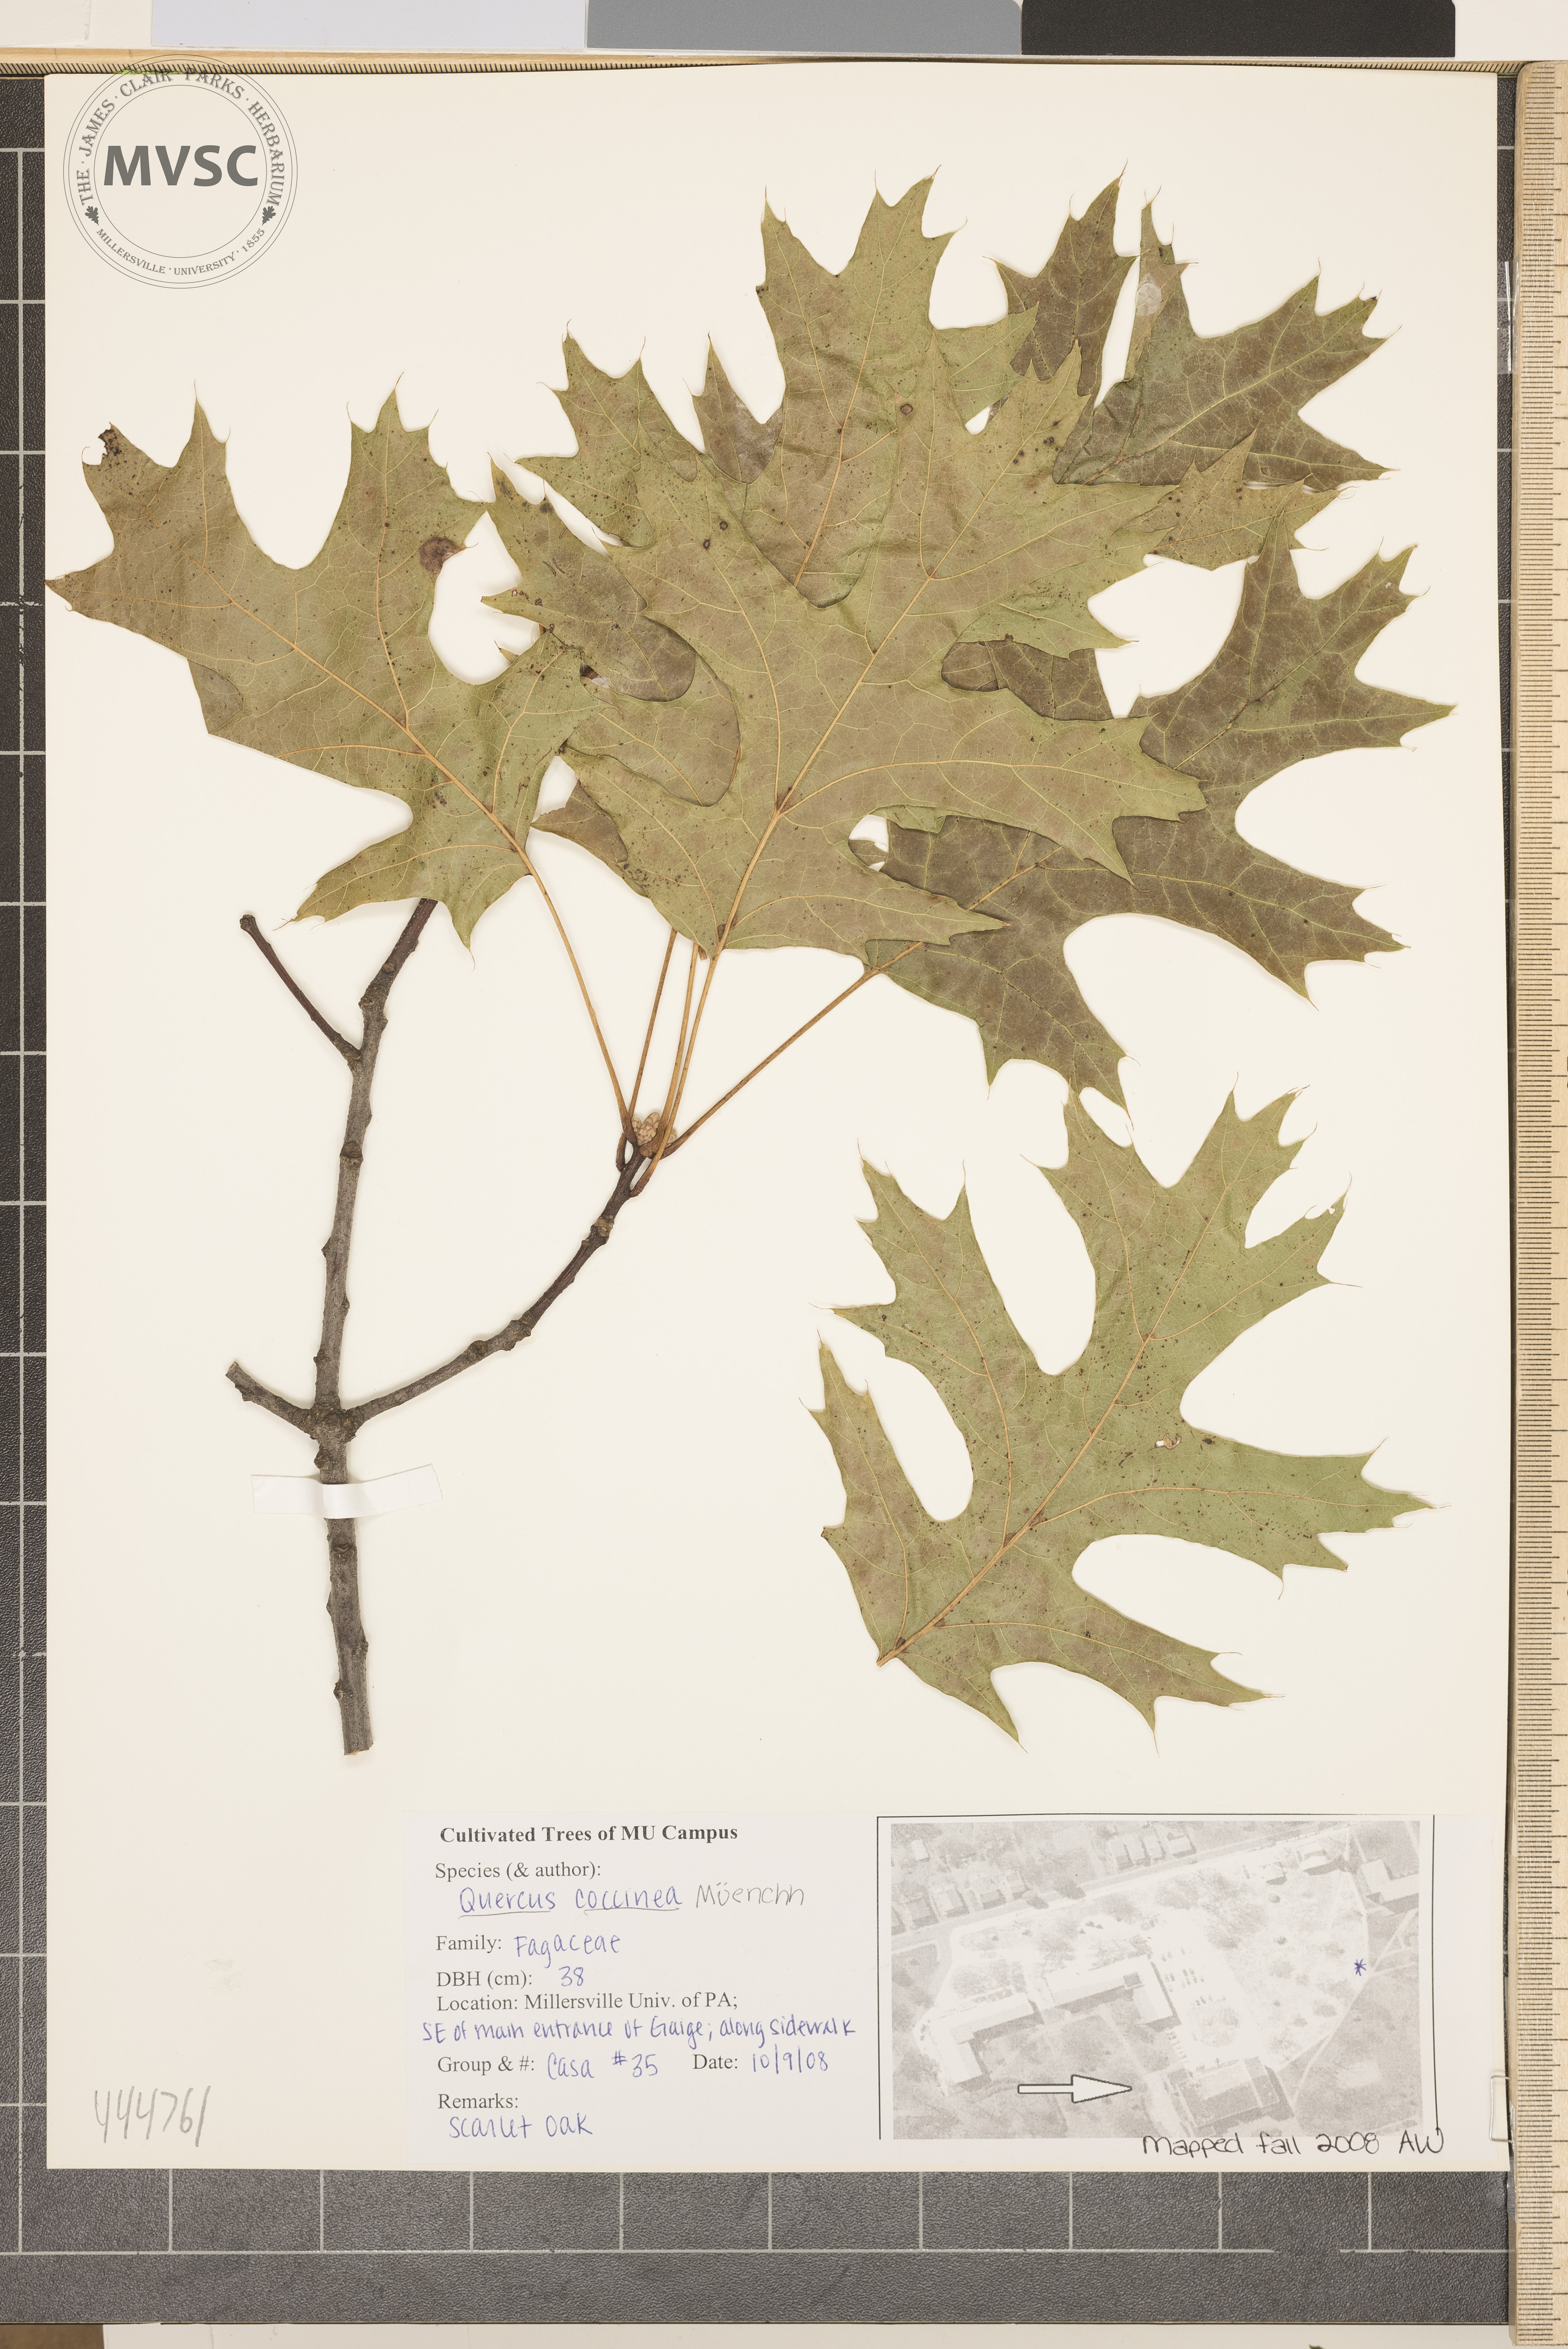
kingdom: Plantae
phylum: Tracheophyta
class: Magnoliopsida
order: Fagales
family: Fagaceae
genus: Quercus
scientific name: Quercus coccinea
